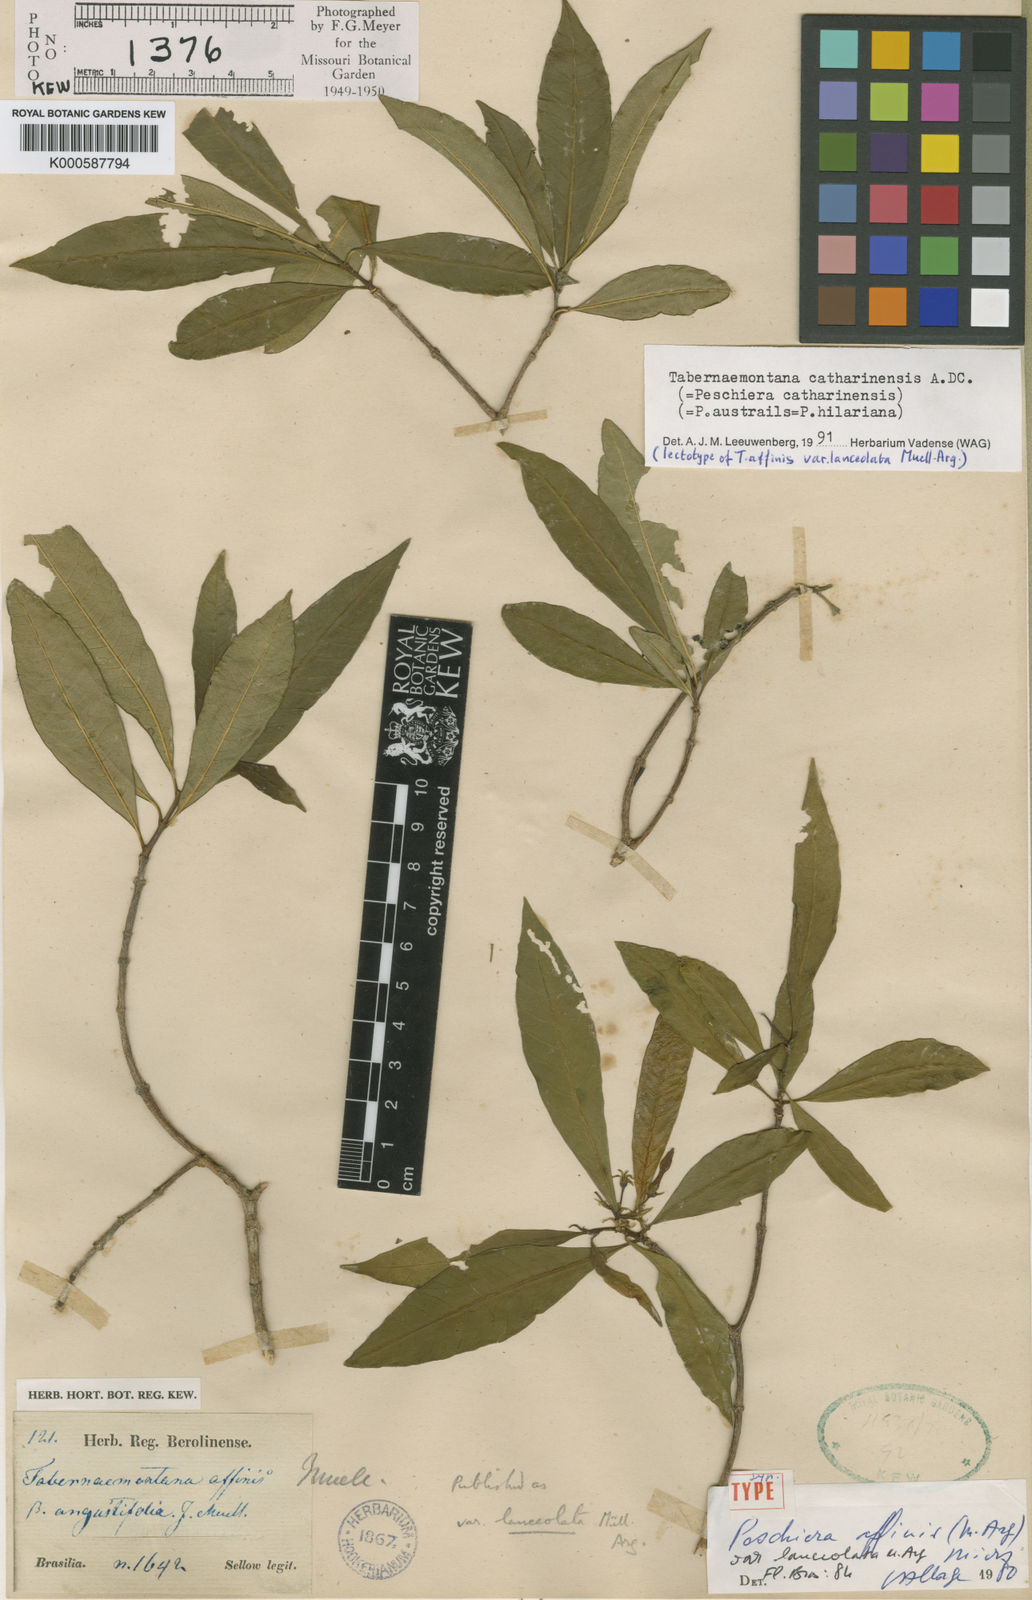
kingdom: Plantae
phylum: Tracheophyta
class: Magnoliopsida
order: Gentianales
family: Apocynaceae
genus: Tabernaemontana
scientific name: Tabernaemontana catharinensis
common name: Pinwheel-flower
